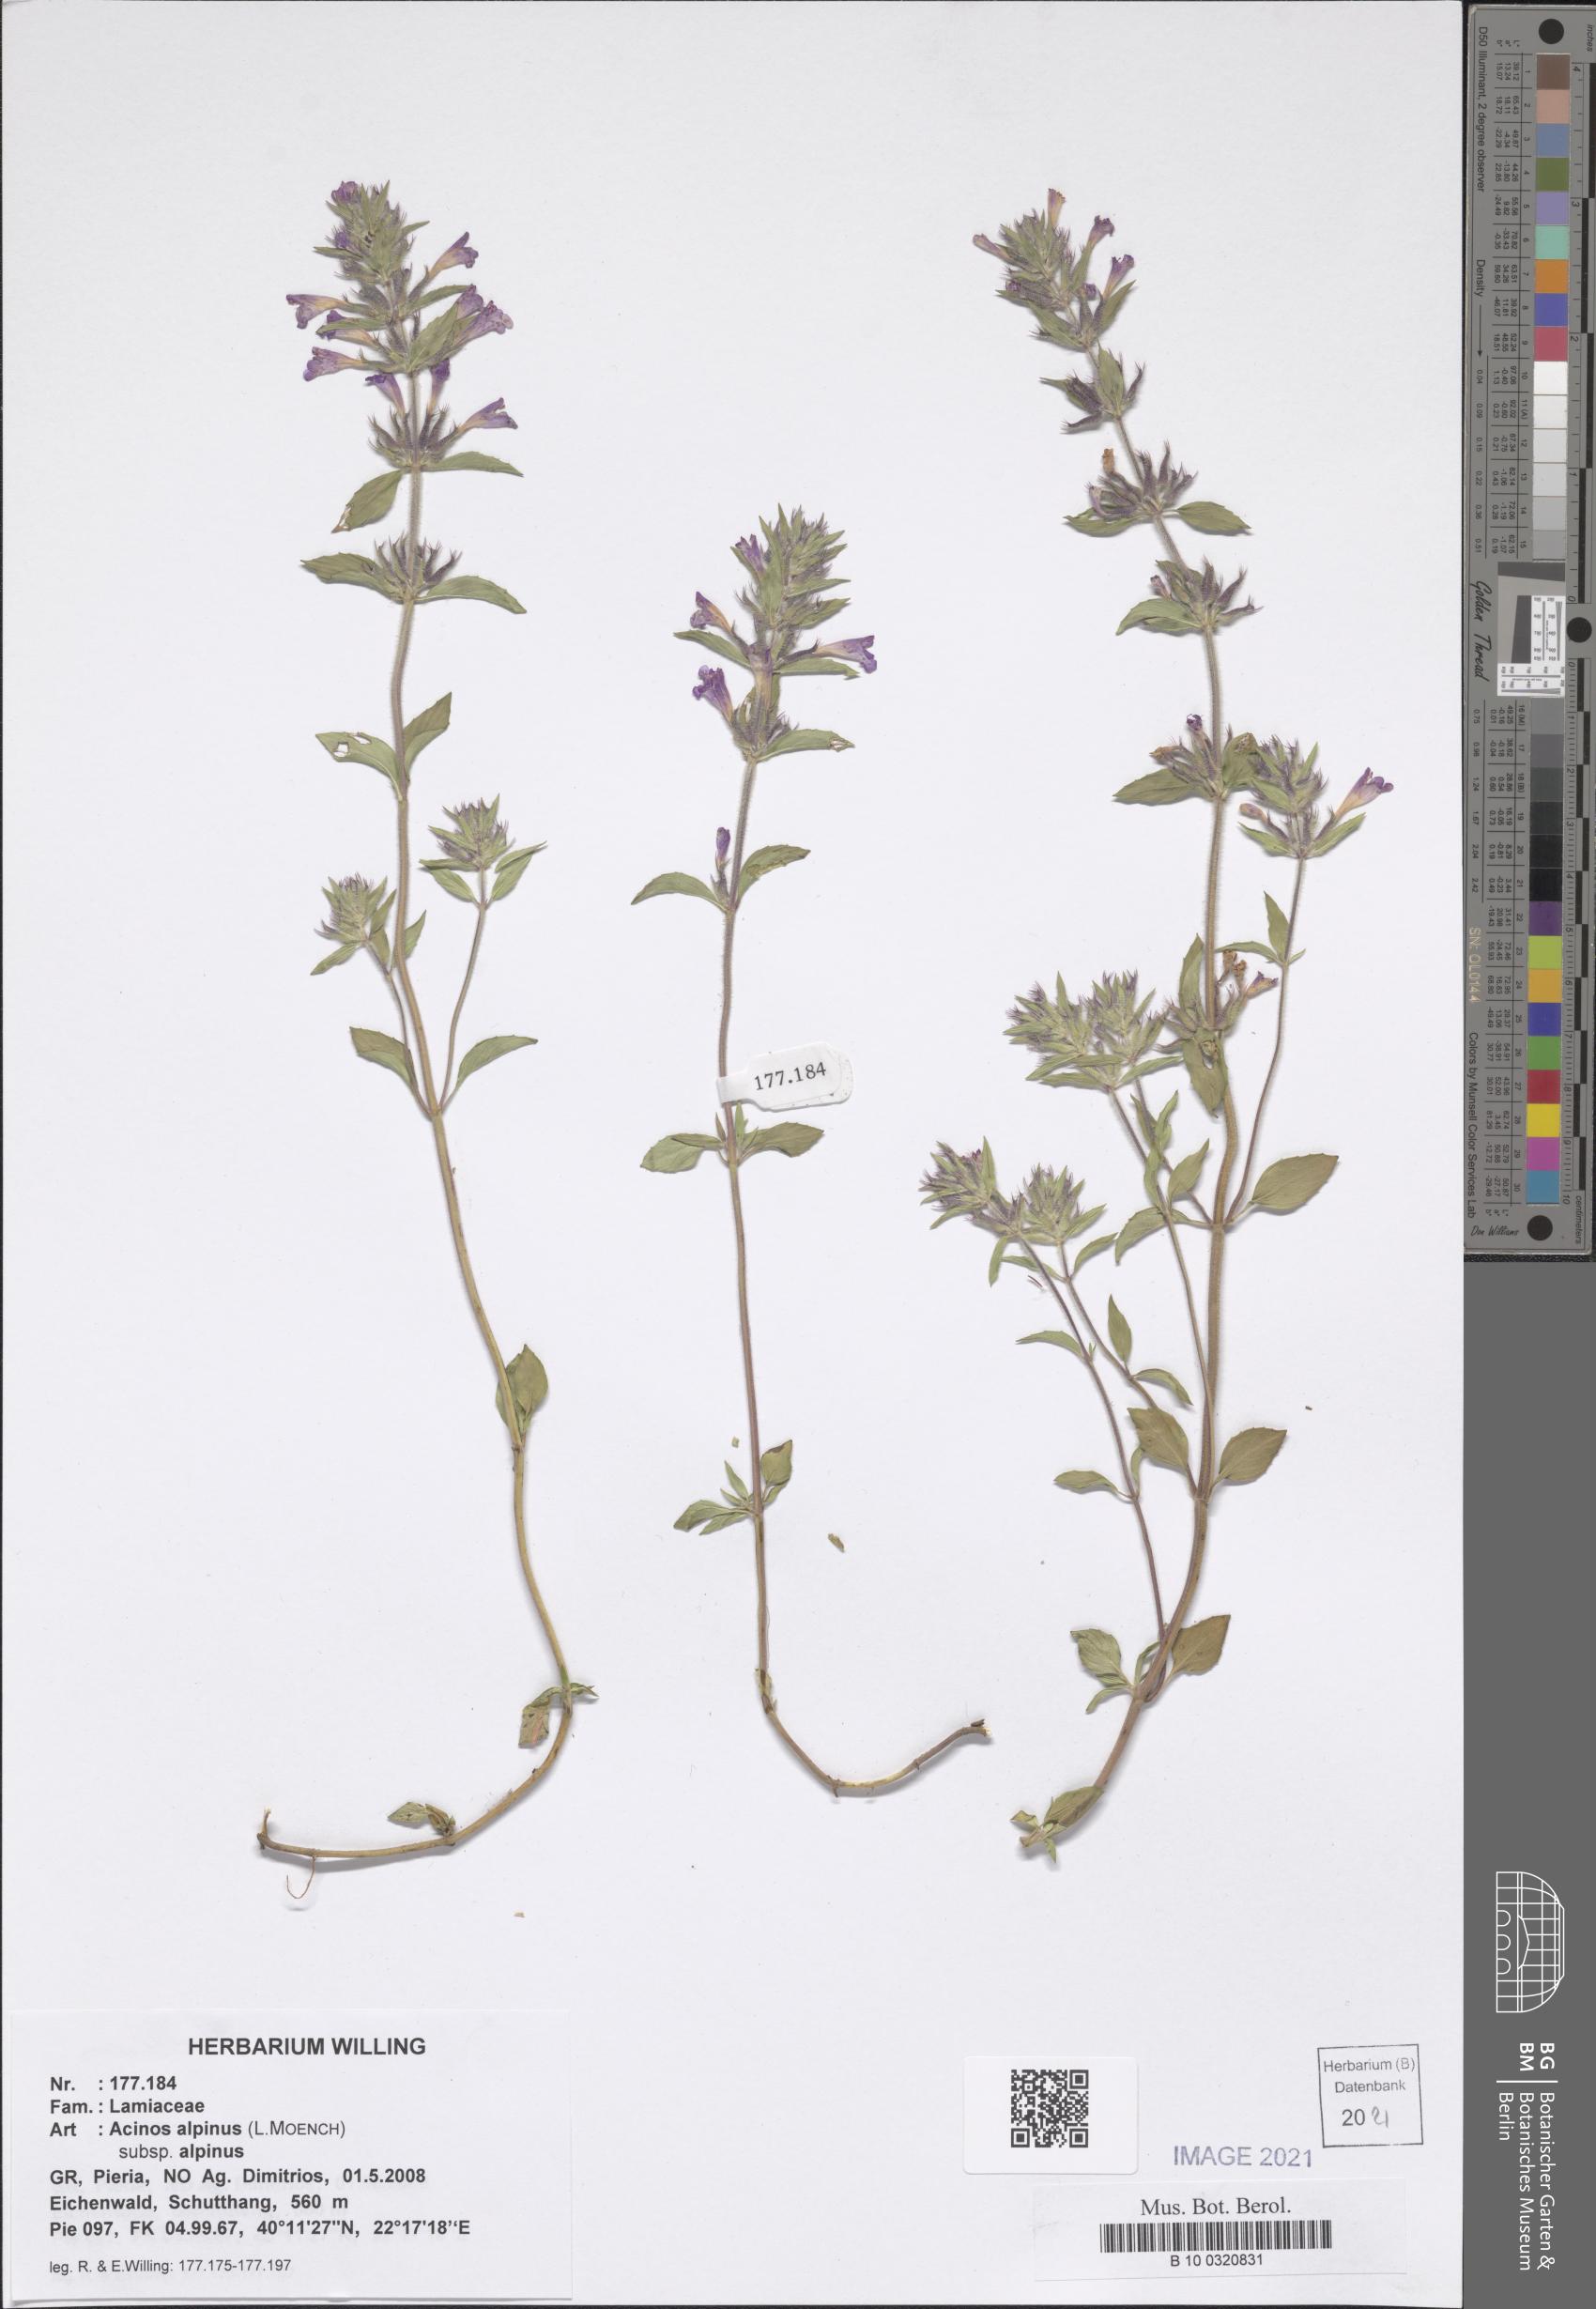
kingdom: Plantae
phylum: Tracheophyta
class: Magnoliopsida
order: Lamiales
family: Lamiaceae
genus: Clinopodium
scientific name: Clinopodium alpinum
